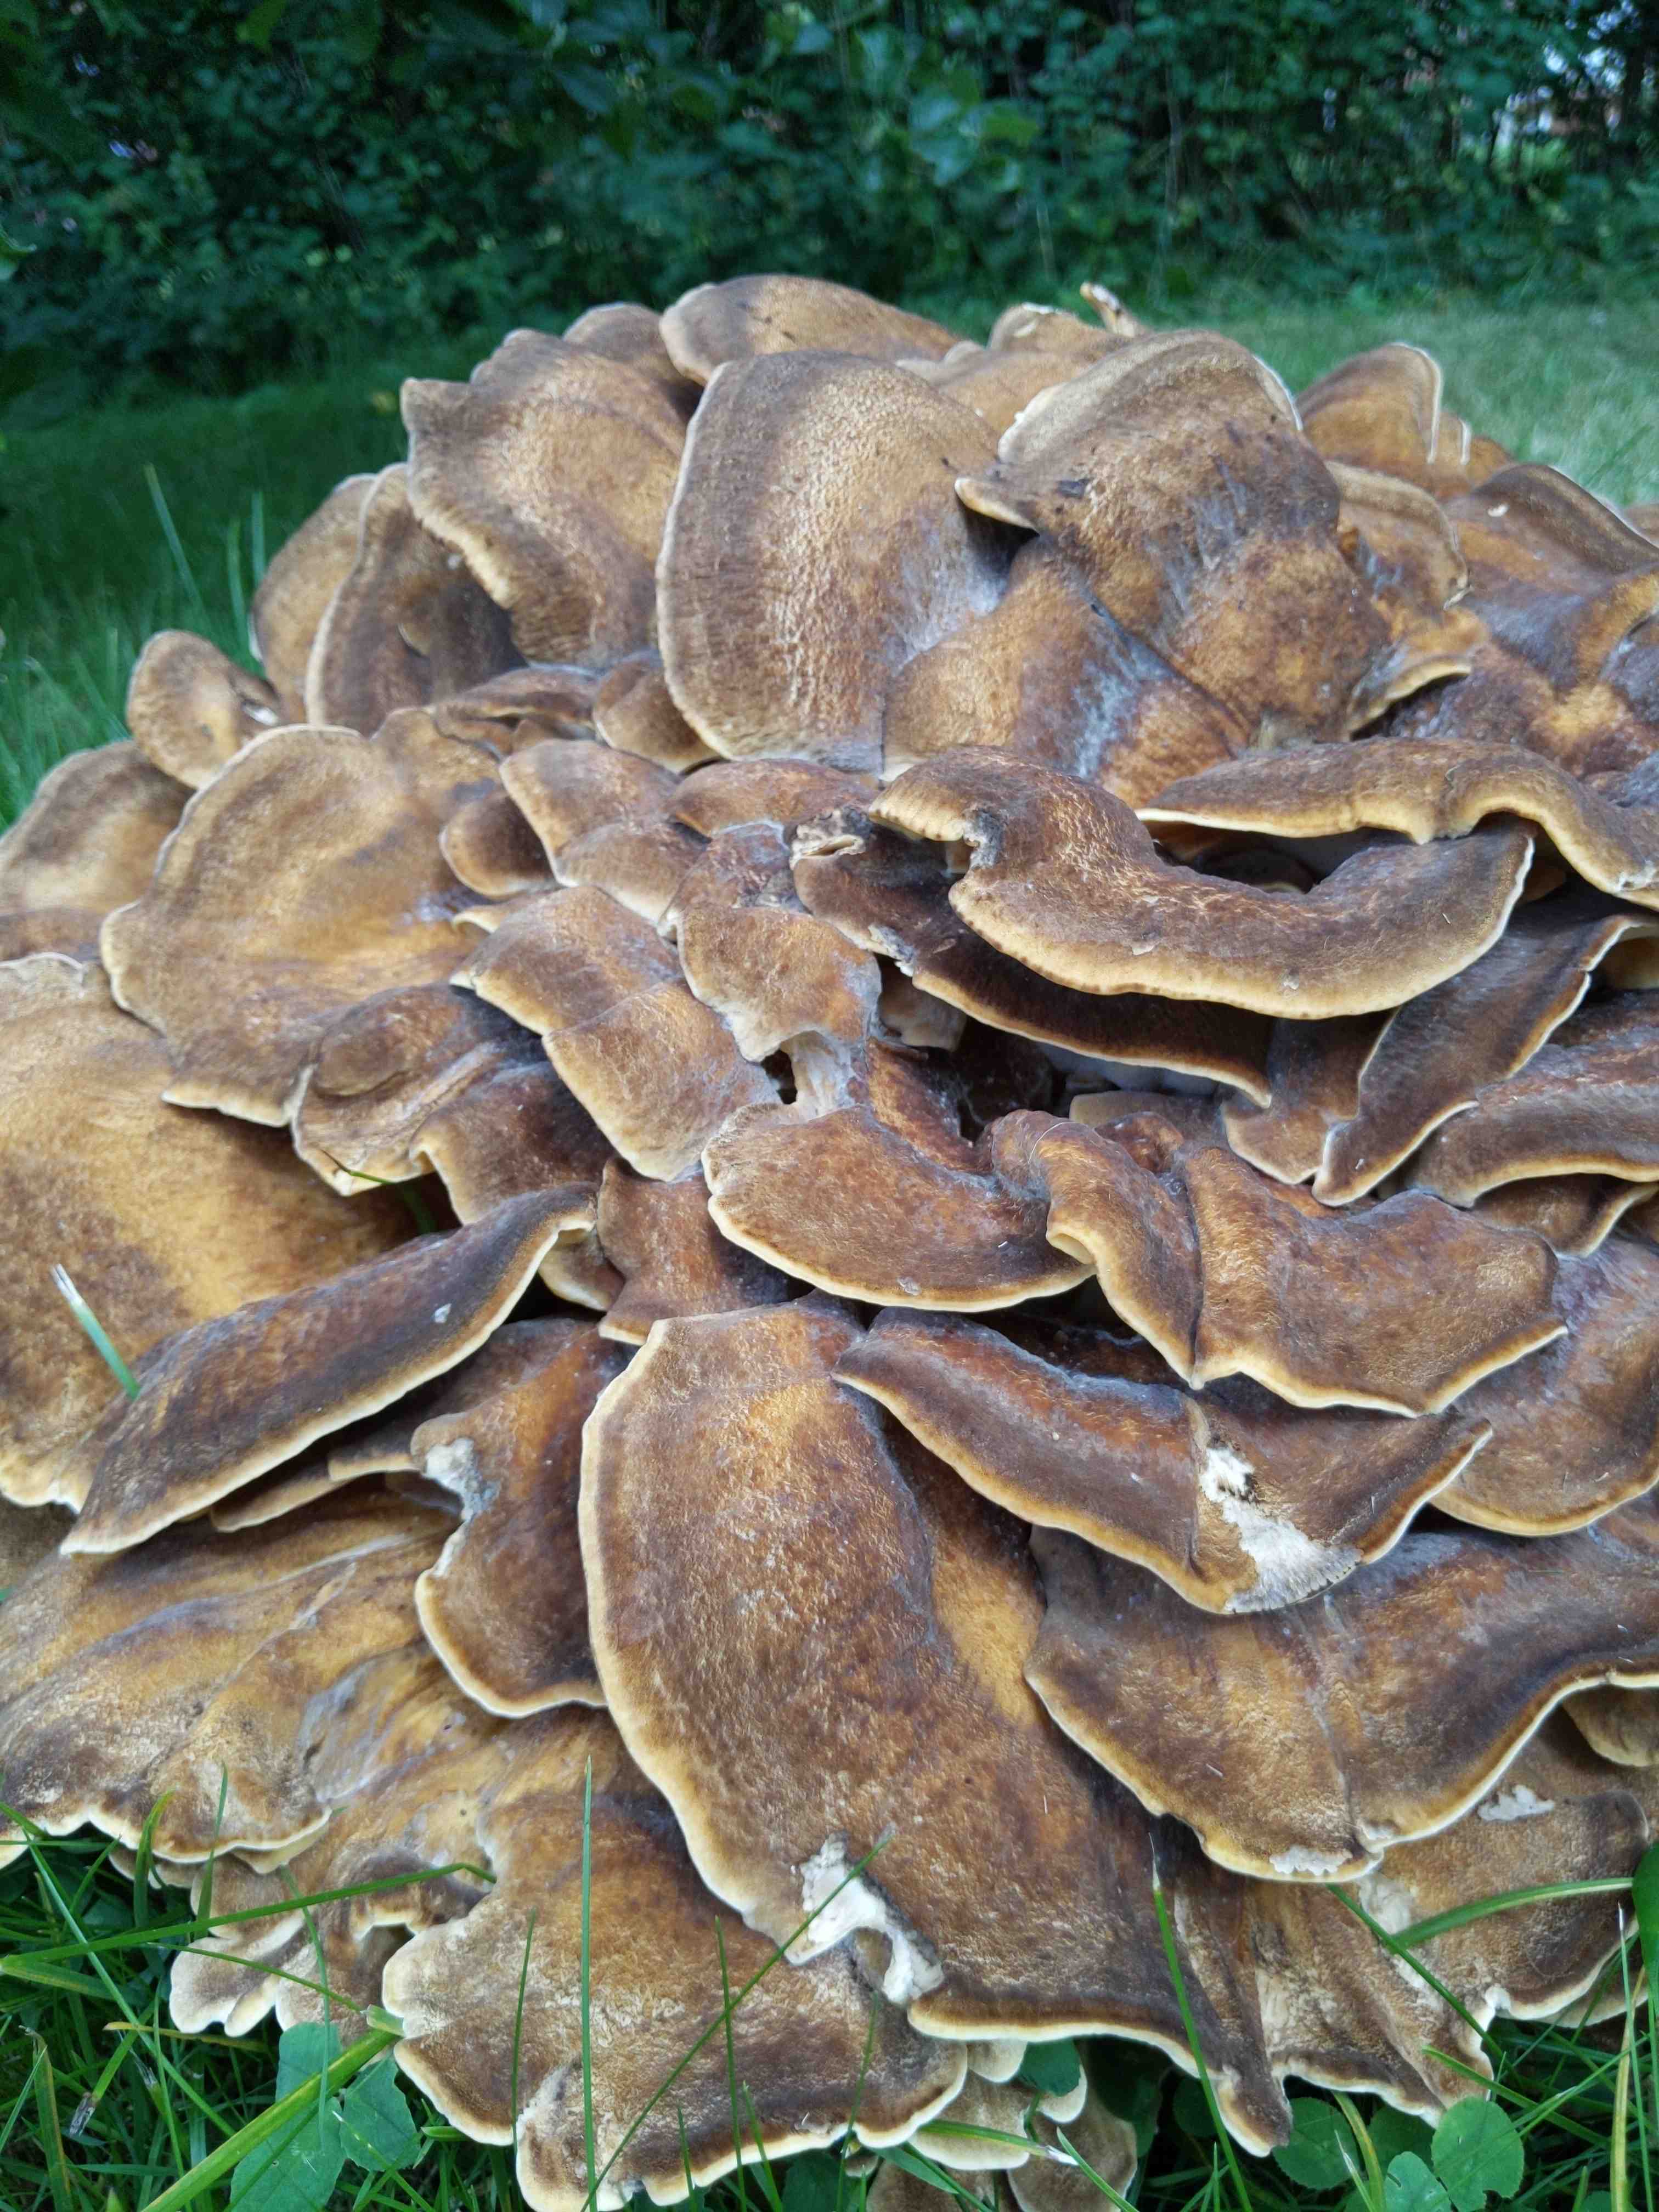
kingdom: Fungi
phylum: Basidiomycota
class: Agaricomycetes
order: Polyporales
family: Meripilaceae
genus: Meripilus
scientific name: Meripilus giganteus
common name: kæmpeporesvamp
